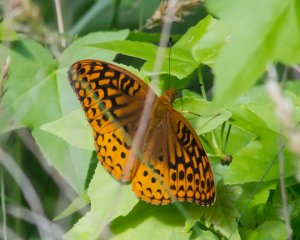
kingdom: Animalia
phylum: Arthropoda
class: Insecta
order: Lepidoptera
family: Nymphalidae
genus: Speyeria
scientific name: Speyeria cybele
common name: Great Spangled Fritillary
